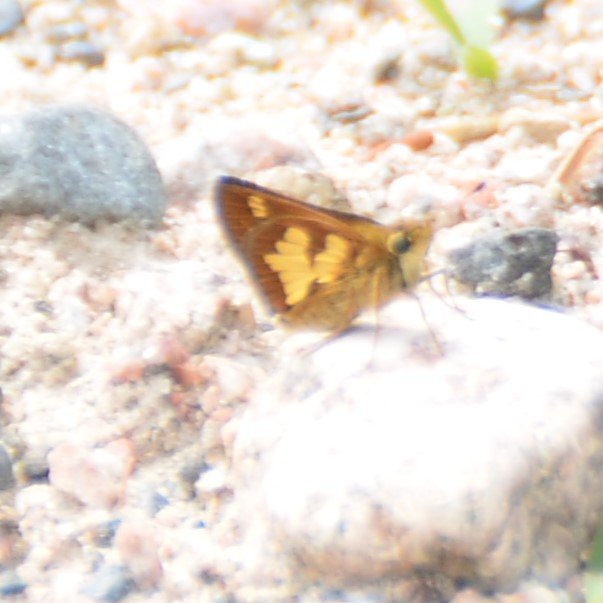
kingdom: Animalia
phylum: Arthropoda
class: Insecta
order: Lepidoptera
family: Hesperiidae
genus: Polites
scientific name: Polites coras
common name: Peck's Skipper
